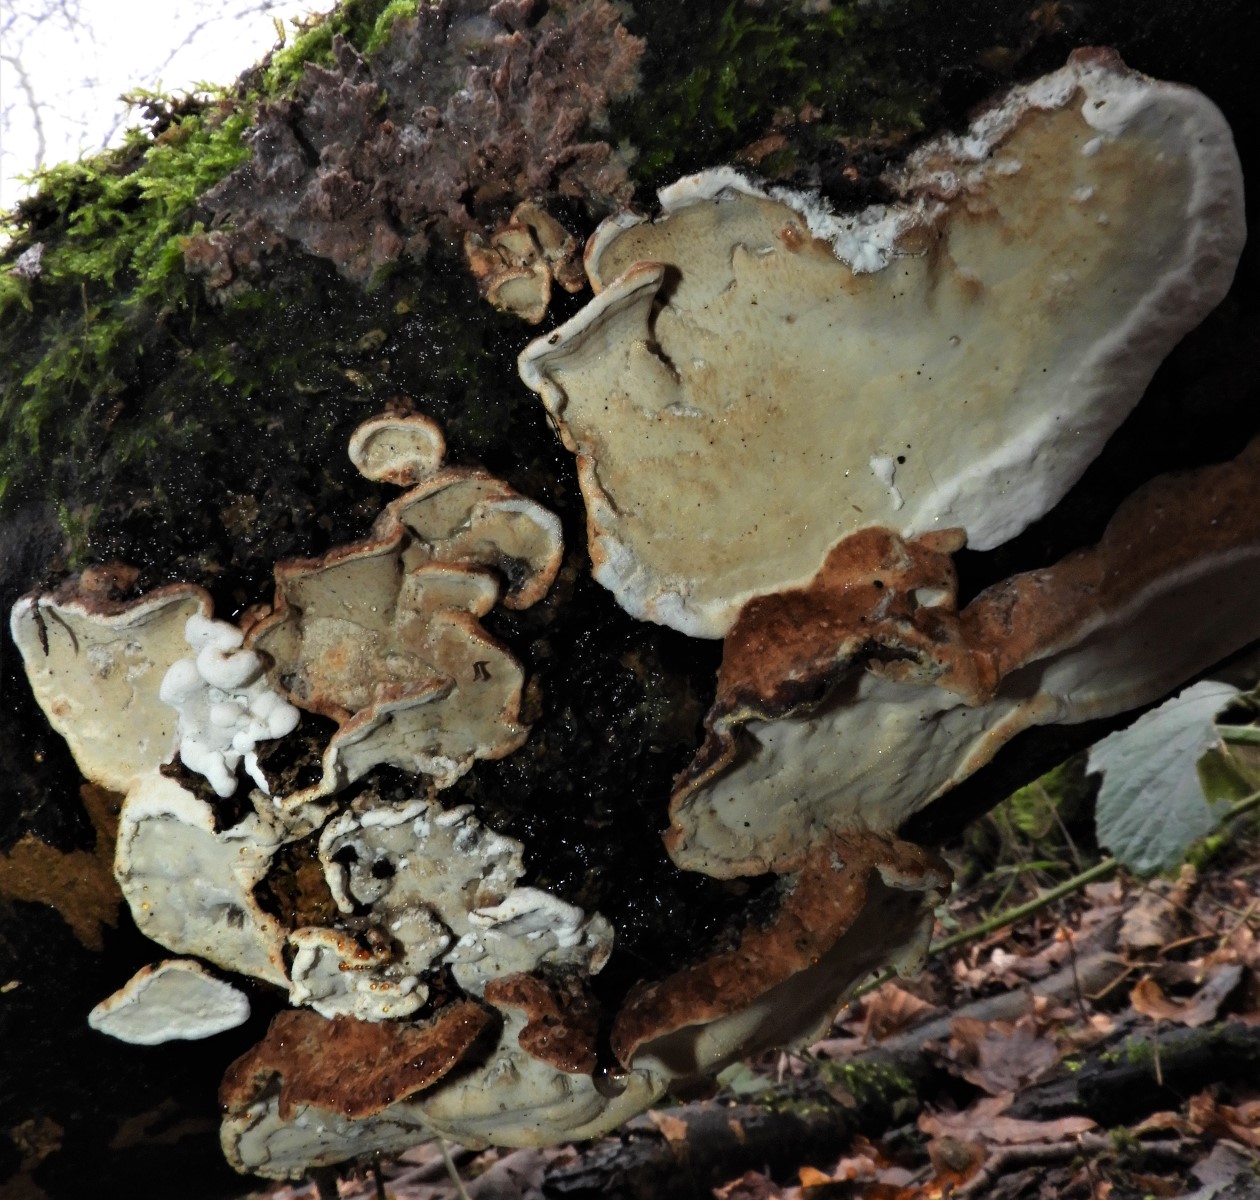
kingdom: Fungi
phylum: Basidiomycota
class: Agaricomycetes
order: Polyporales
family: Incrustoporiaceae
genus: Skeletocutis
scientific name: Skeletocutis nemoralis
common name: stor krystalporesvamp
